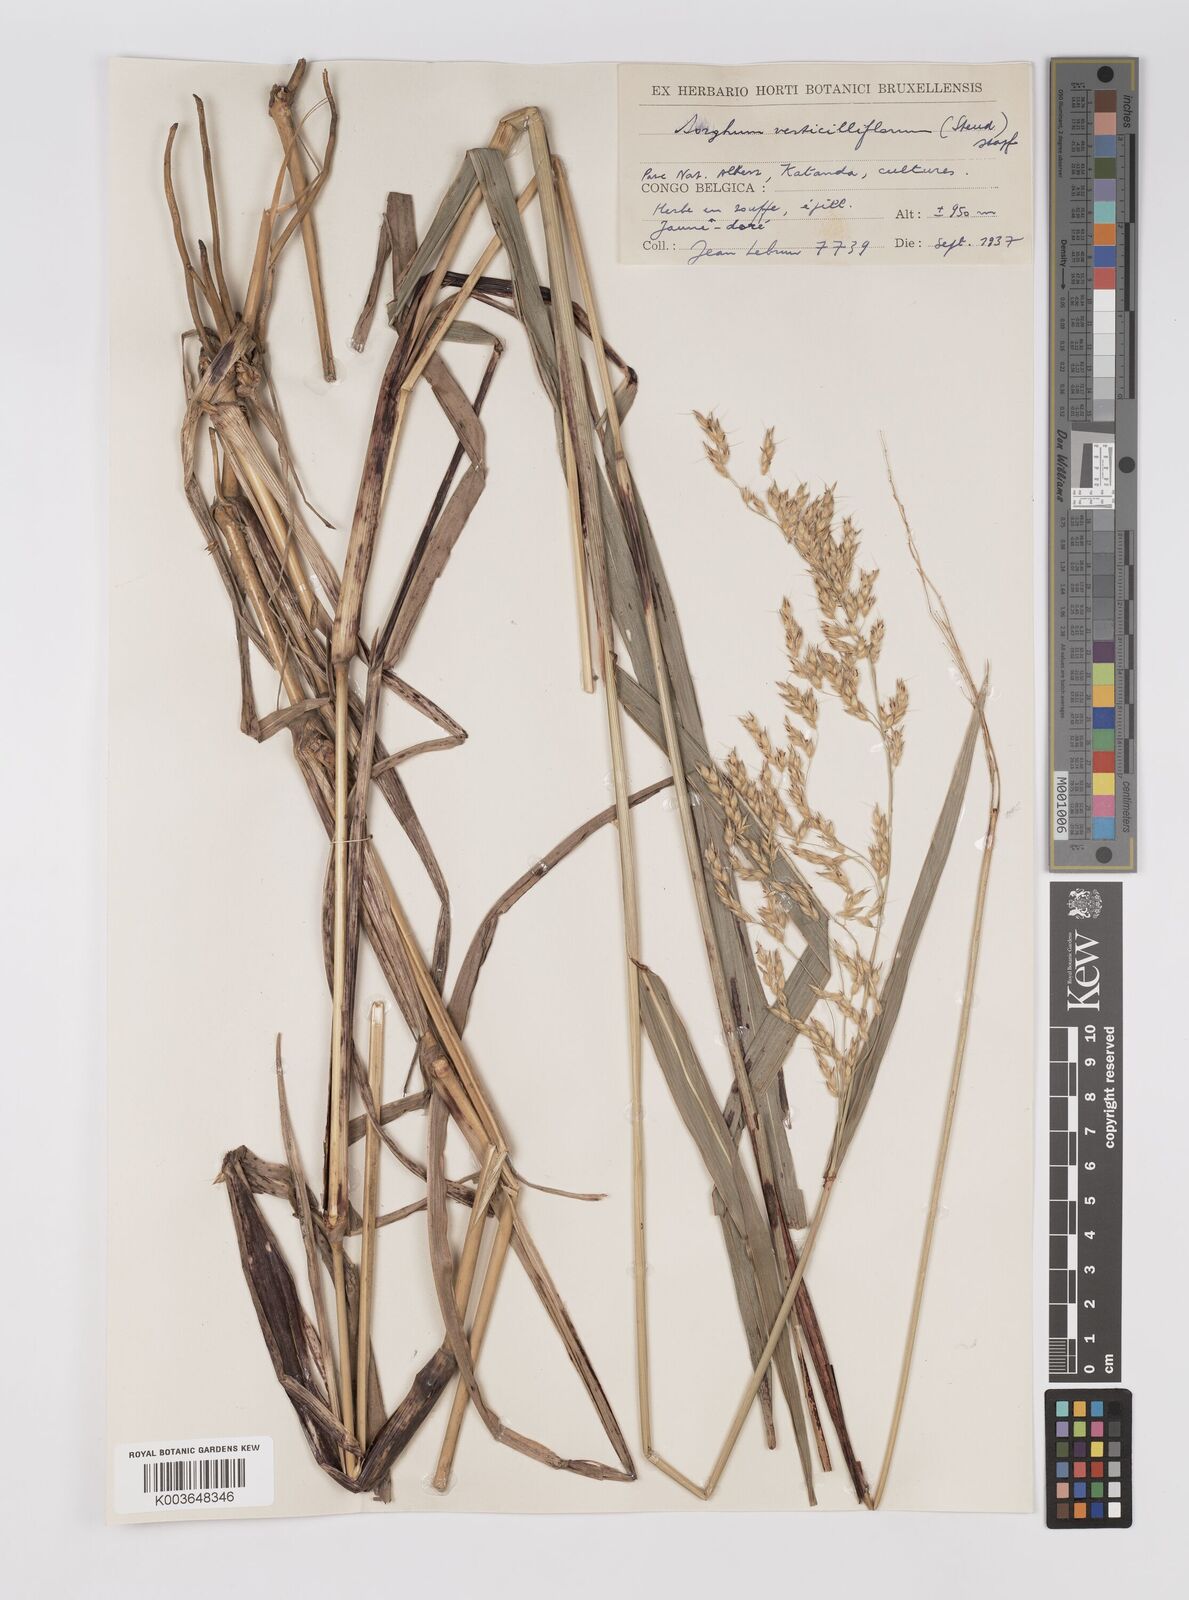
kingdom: Plantae
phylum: Tracheophyta
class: Liliopsida
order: Poales
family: Poaceae
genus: Sorghum
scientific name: Sorghum arundinaceum
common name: Sorghum
